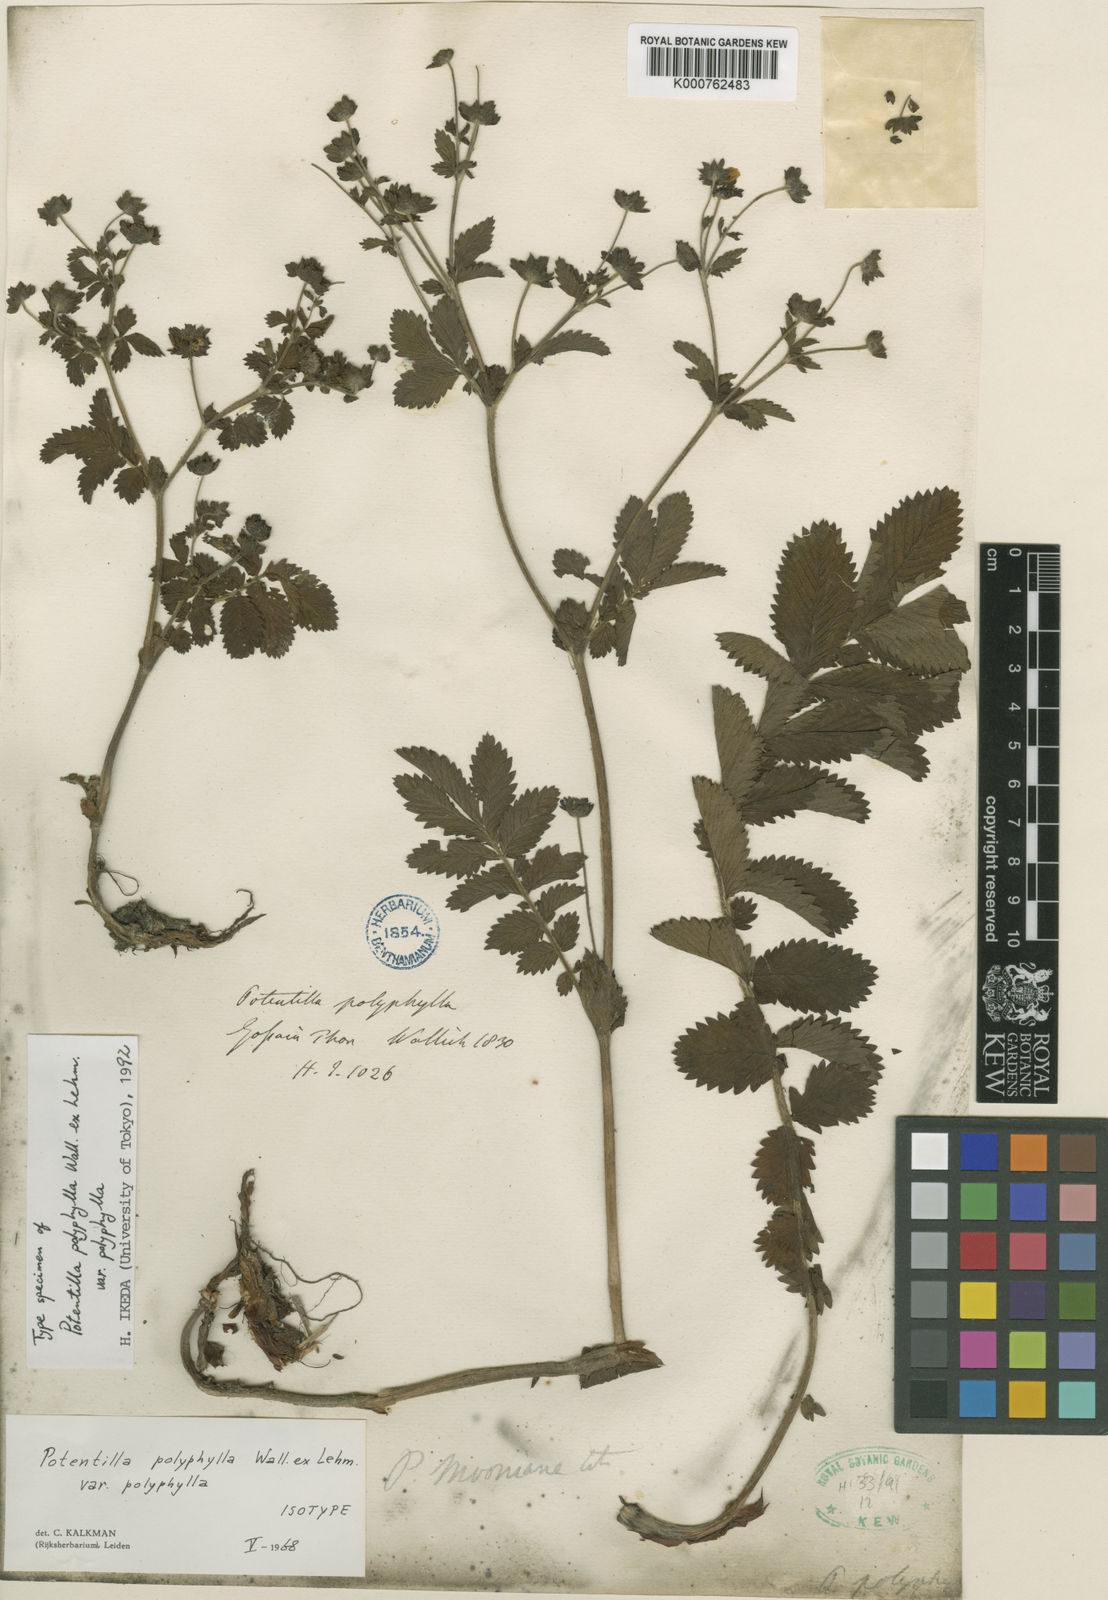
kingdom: Plantae
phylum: Tracheophyta
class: Magnoliopsida
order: Rosales
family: Rosaceae
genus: Argentina
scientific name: Argentina polyphylla
